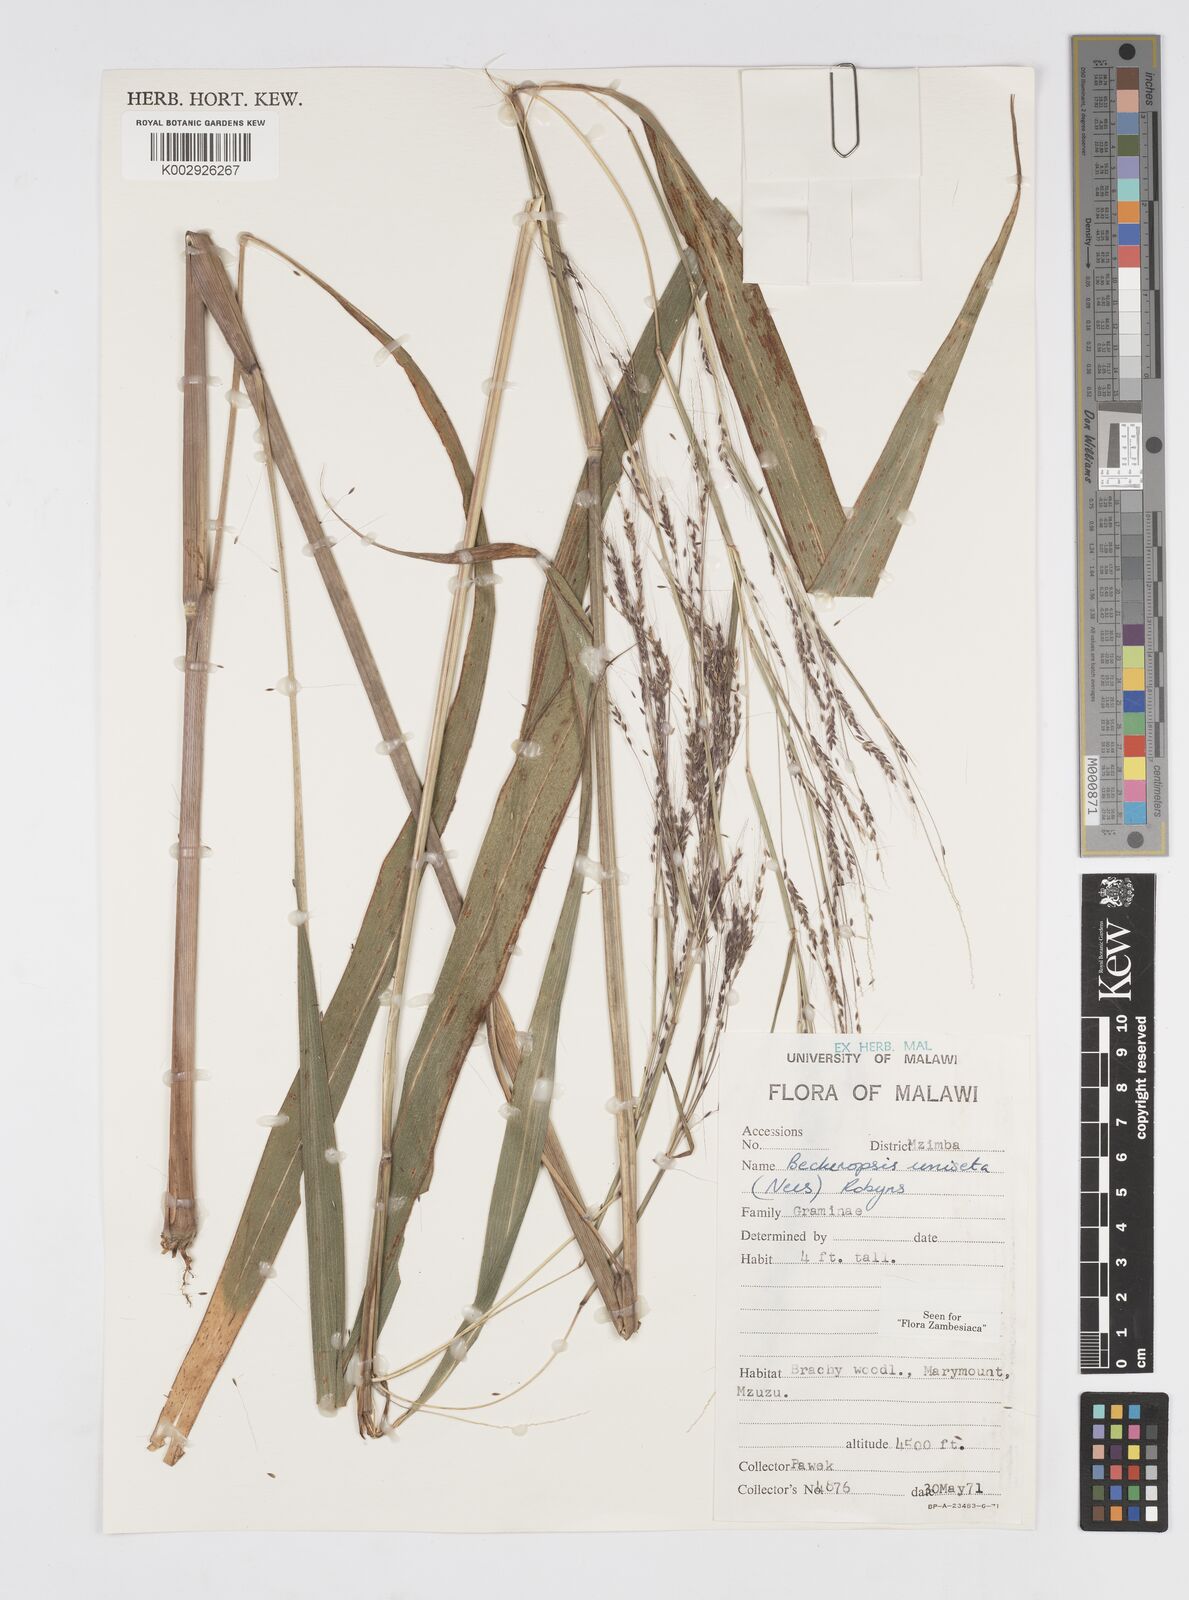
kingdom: Plantae
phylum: Tracheophyta
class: Liliopsida
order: Poales
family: Poaceae
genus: Cenchrus
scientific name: Cenchrus unisetus
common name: Natal grass
